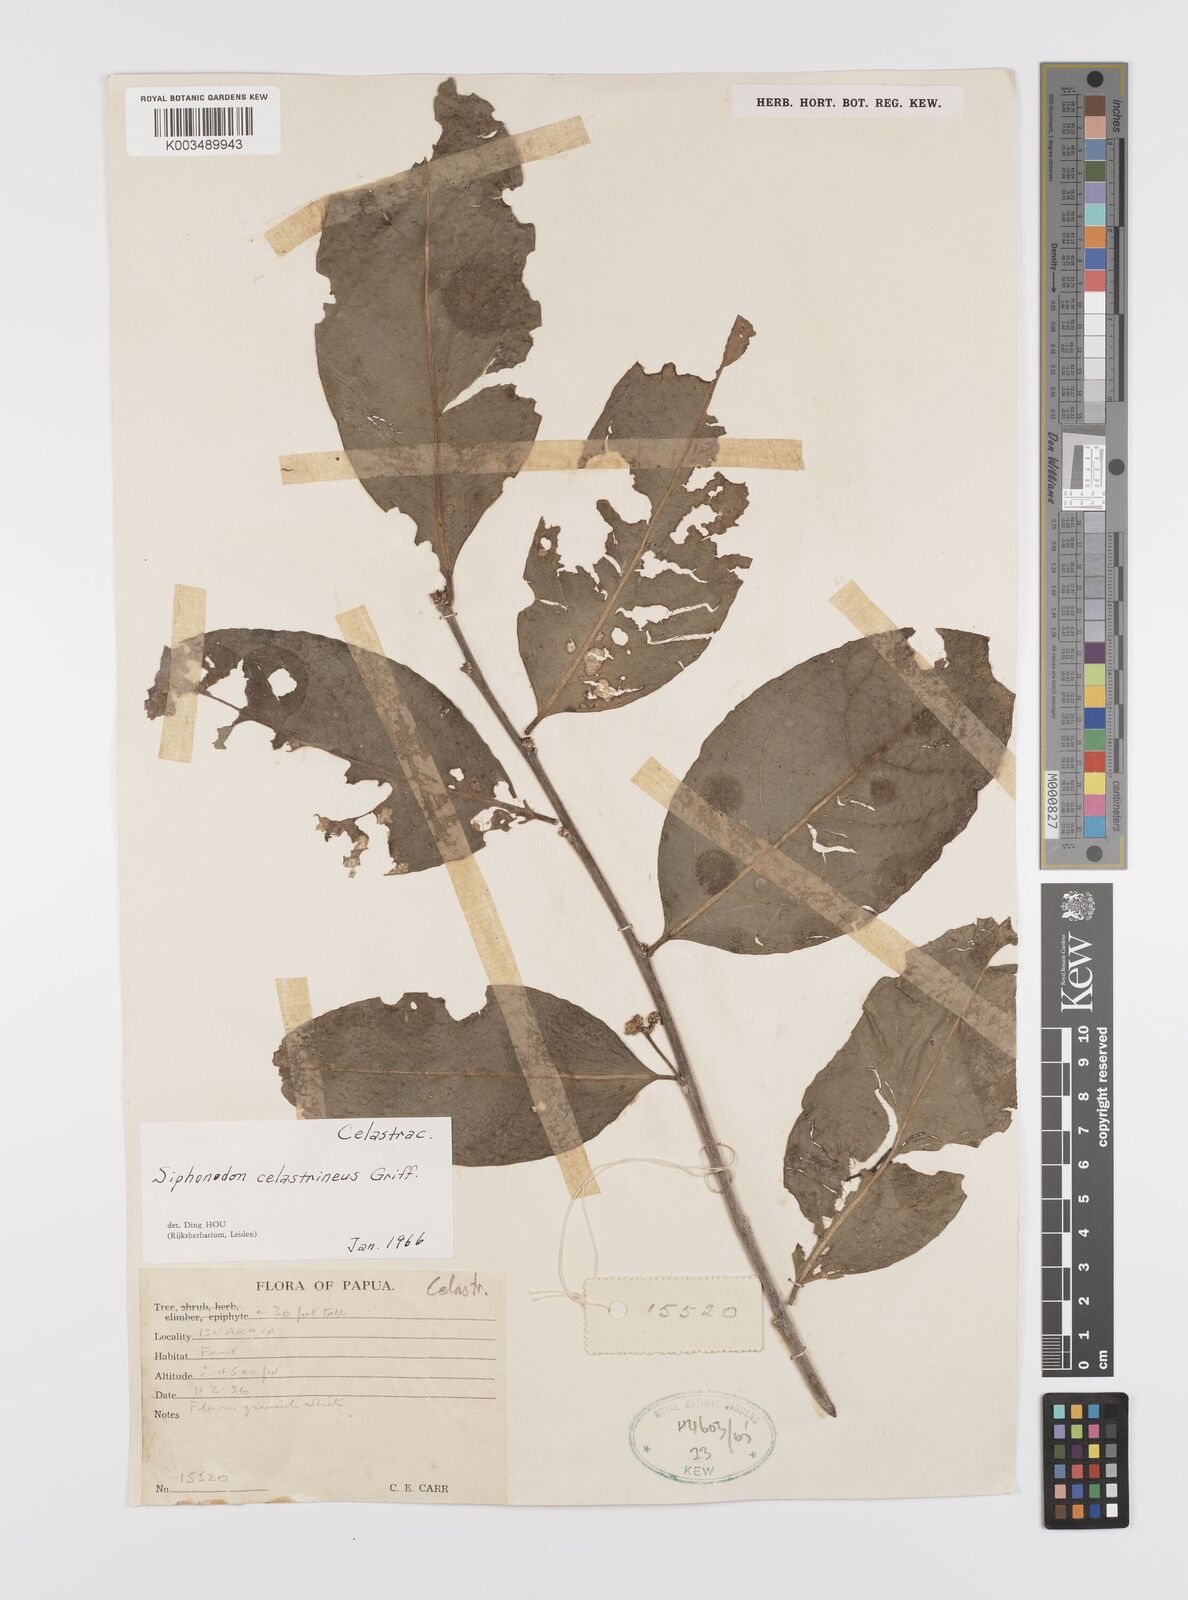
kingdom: Plantae
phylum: Tracheophyta
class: Magnoliopsida
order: Celastrales
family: Celastraceae
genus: Siphonodon
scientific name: Siphonodon celastrineus
